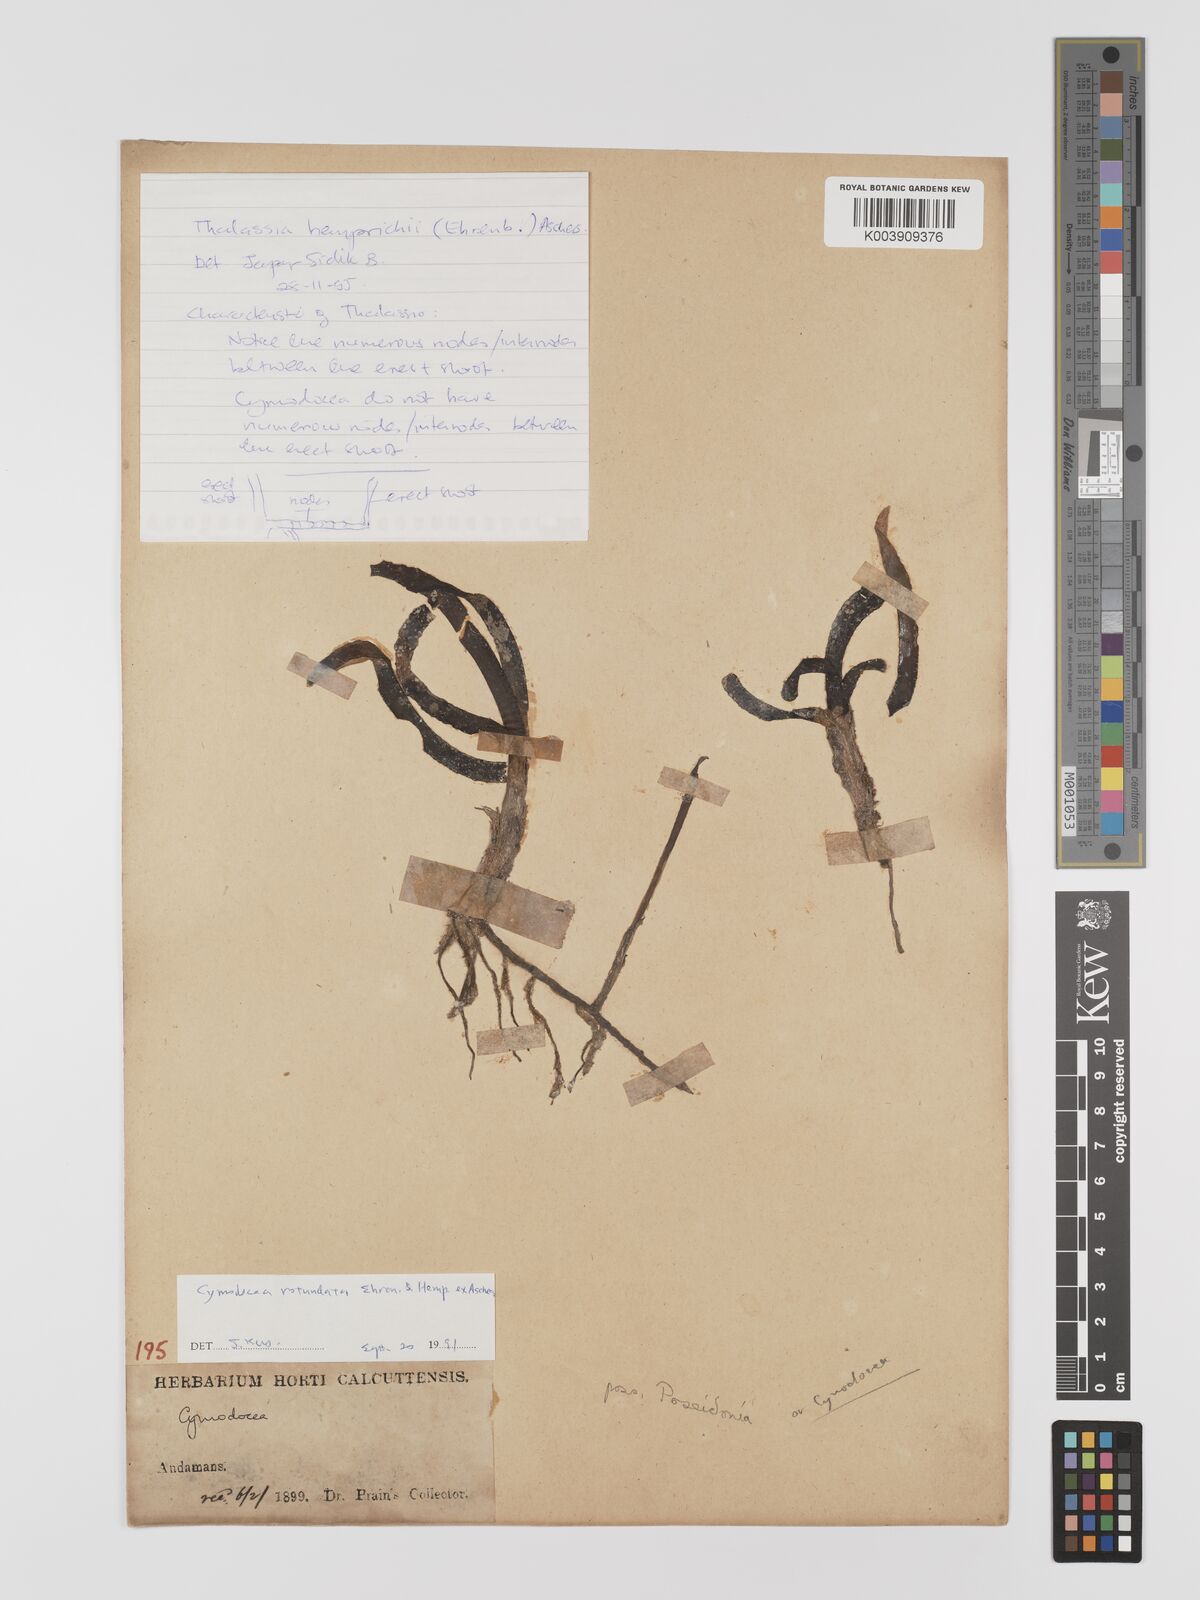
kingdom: Plantae
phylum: Tracheophyta
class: Liliopsida
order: Alismatales
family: Cymodoceaceae
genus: Cymodocea
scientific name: Cymodocea
